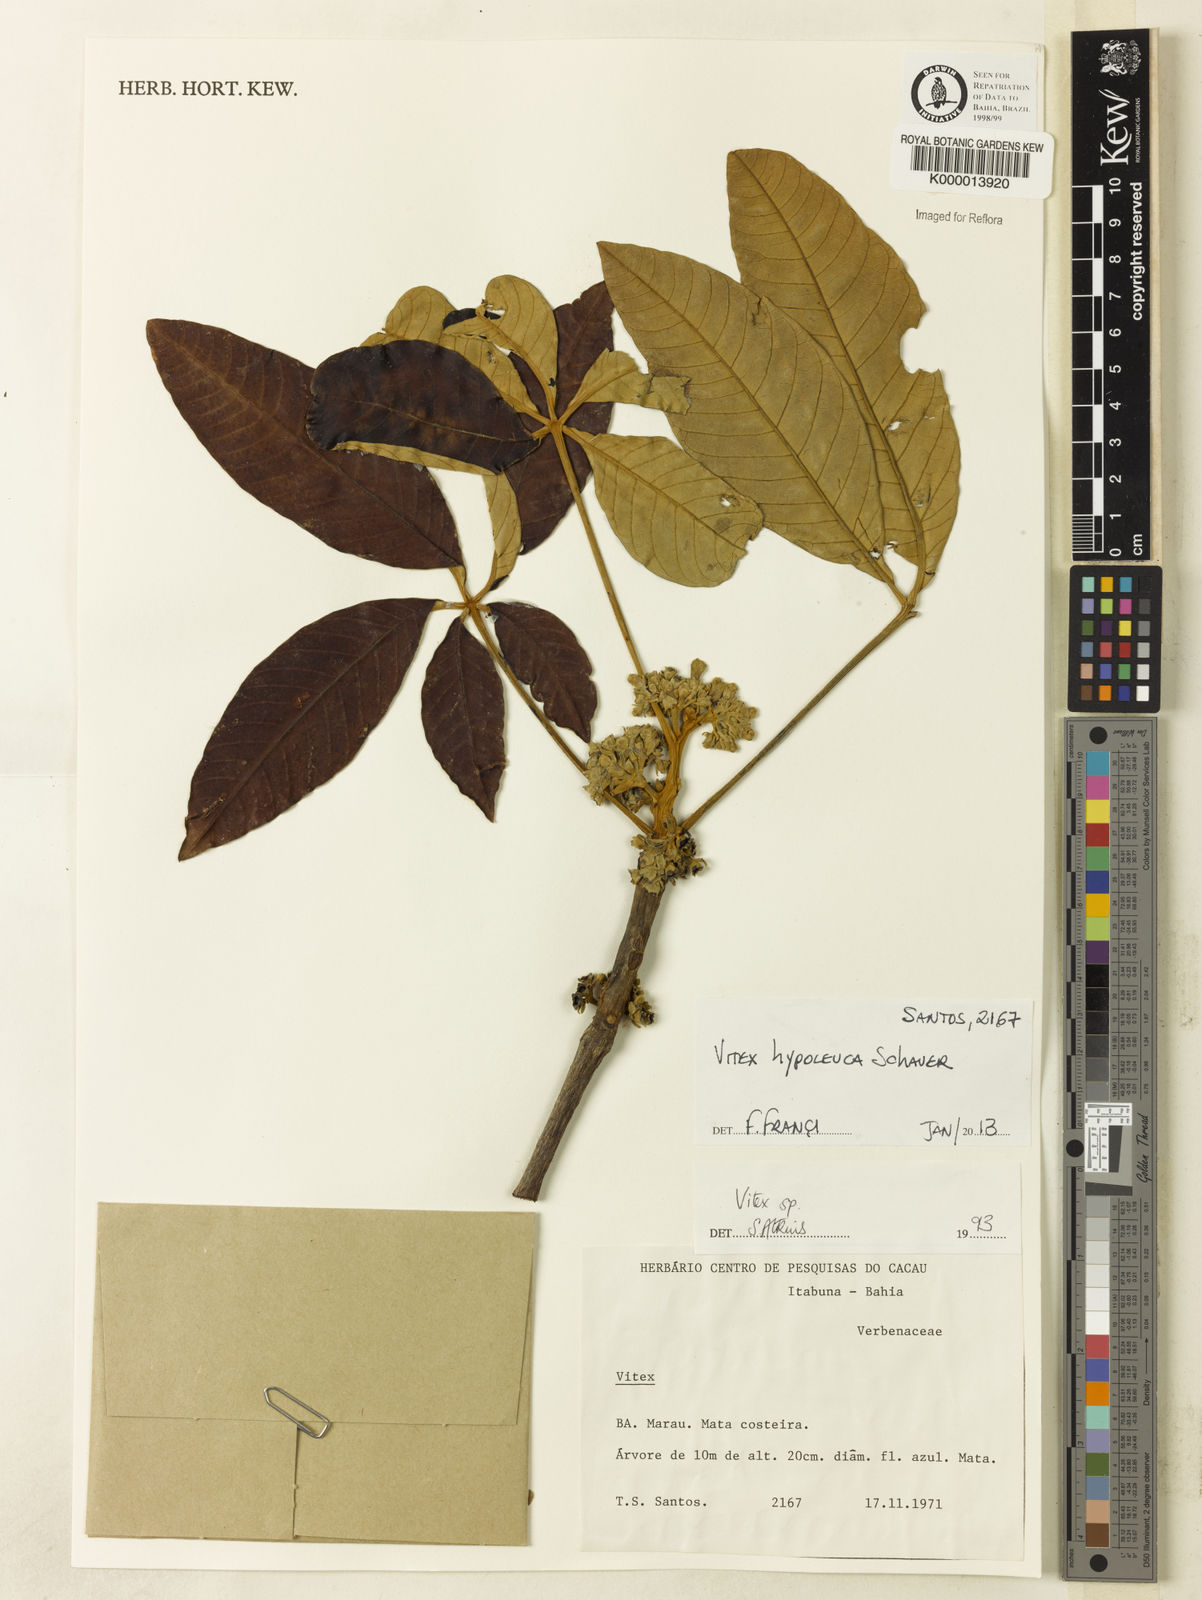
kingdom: Plantae
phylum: Tracheophyta
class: Magnoliopsida
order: Lamiales
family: Lamiaceae
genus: Vitex
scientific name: Vitex hypoleuca
